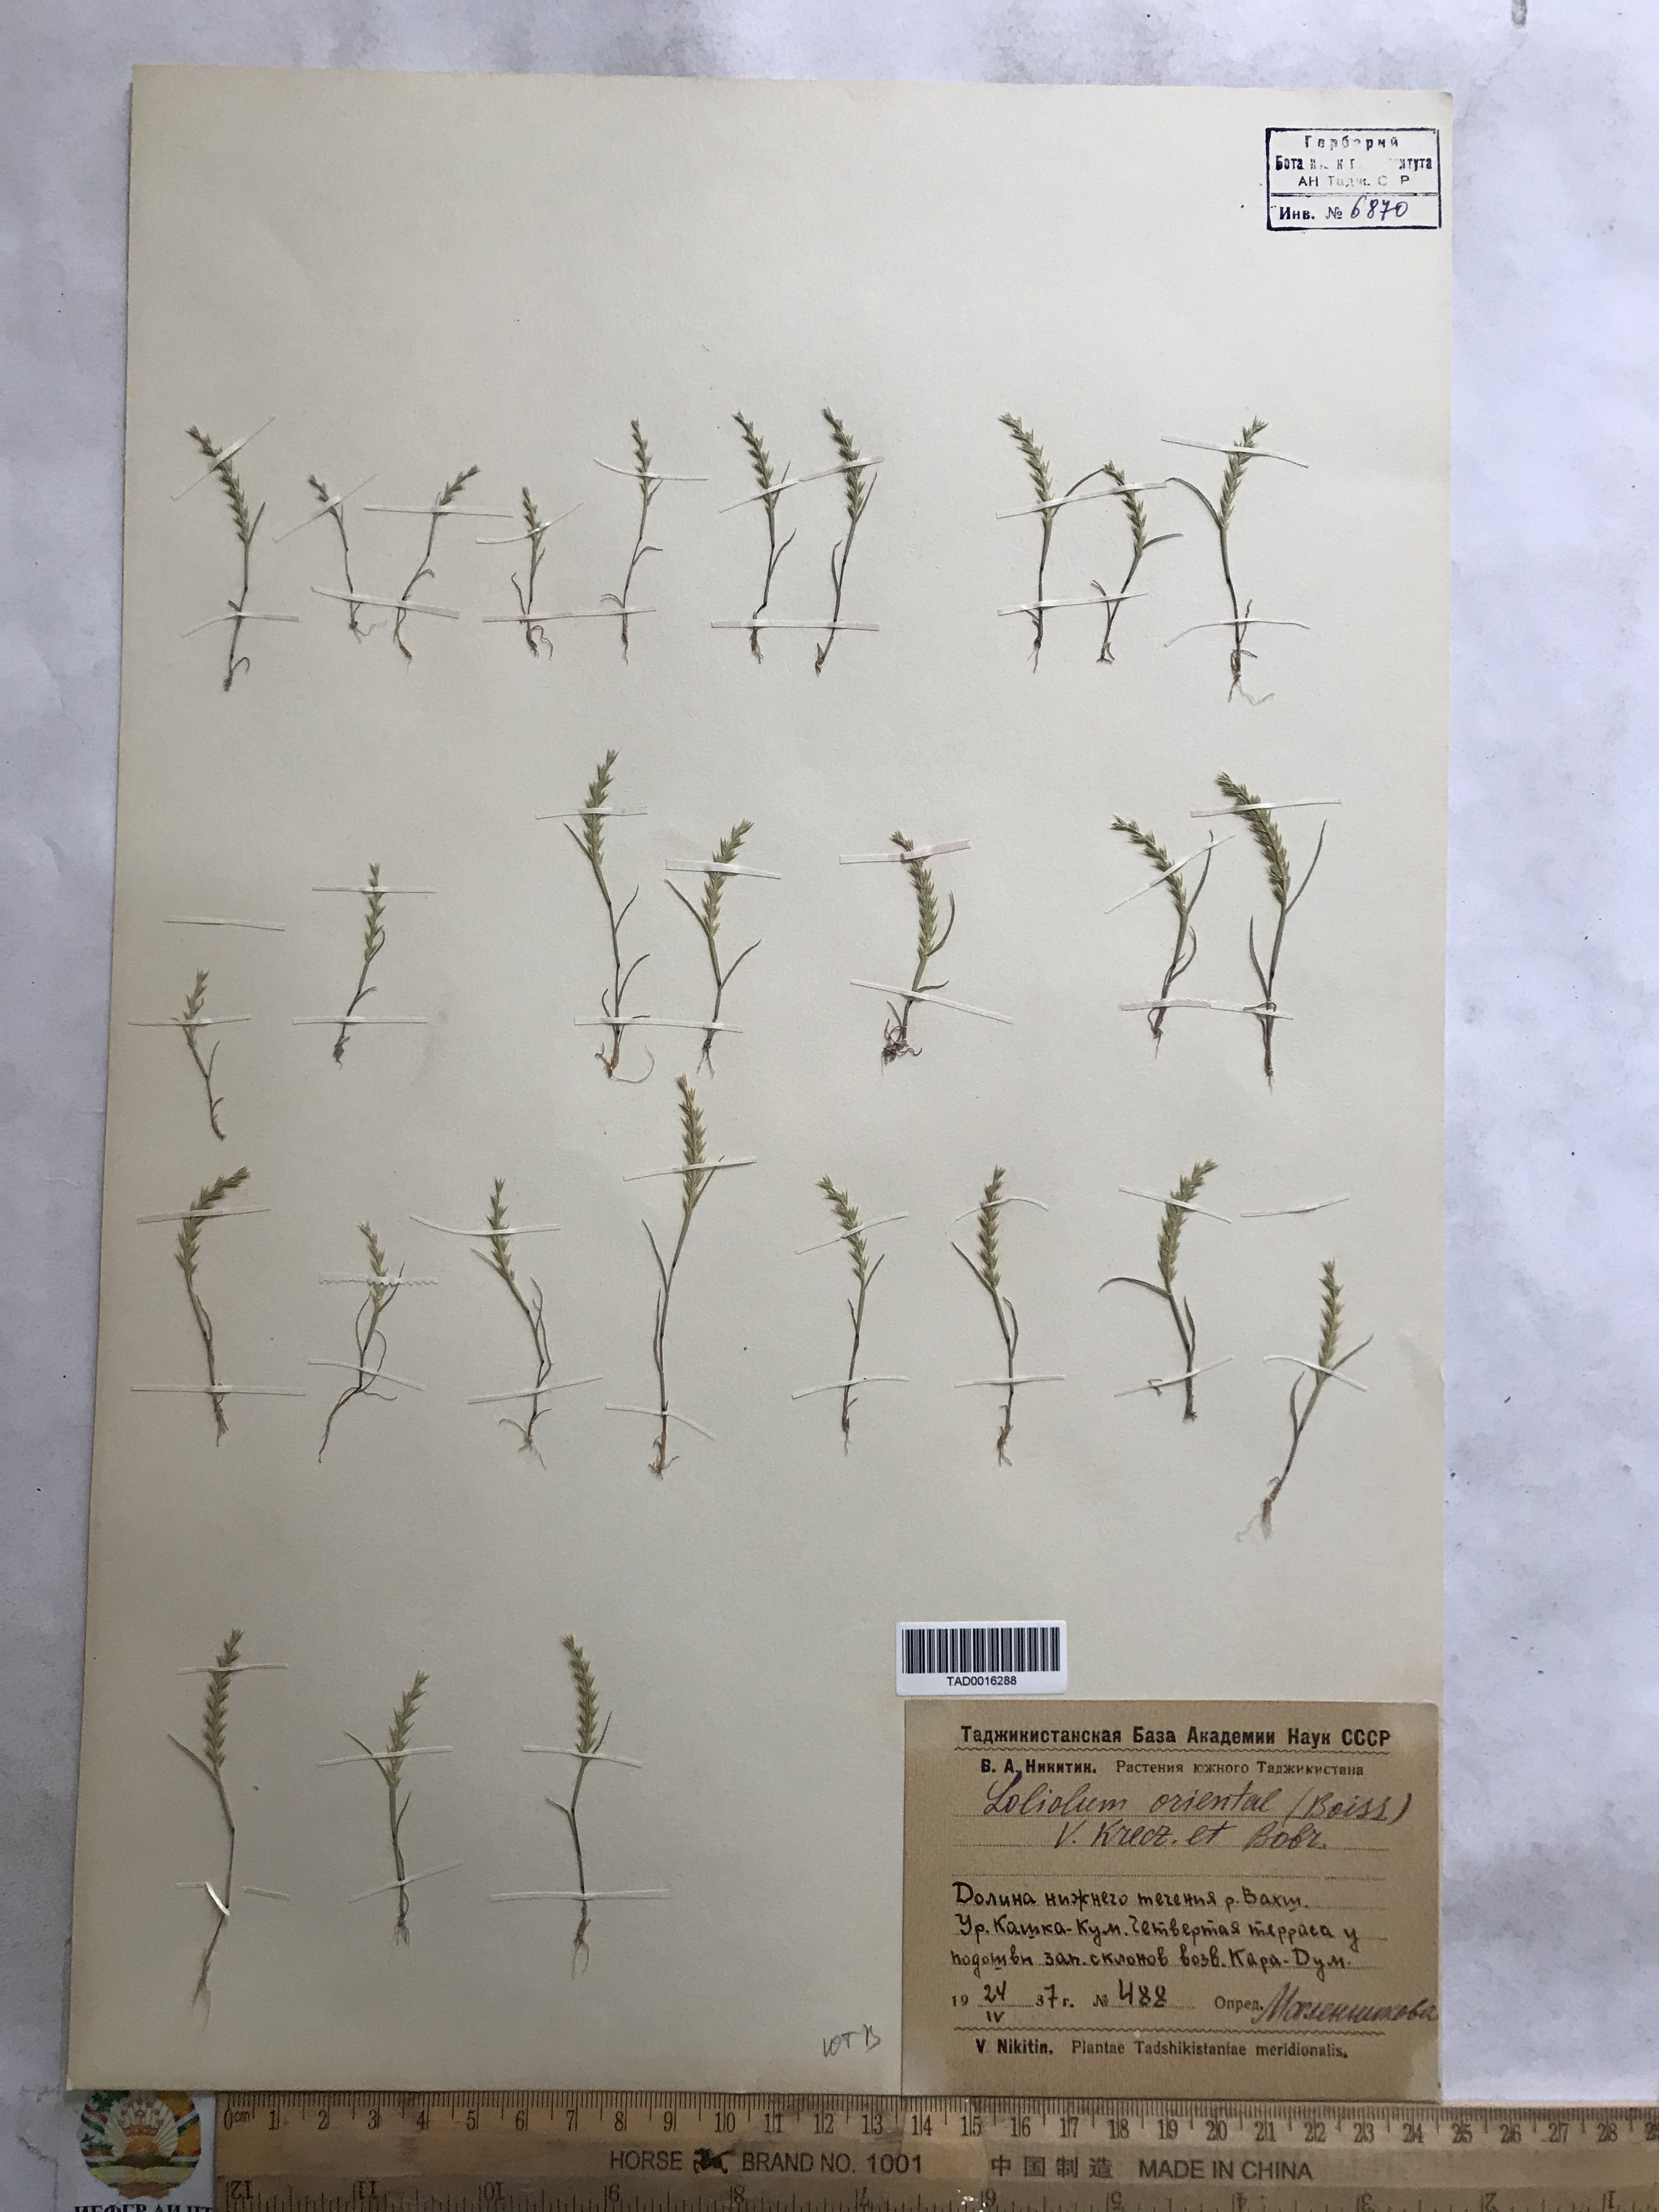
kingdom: Plantae
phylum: Tracheophyta
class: Liliopsida
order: Poales
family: Poaceae
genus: Festuca
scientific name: Festuca orientalis
